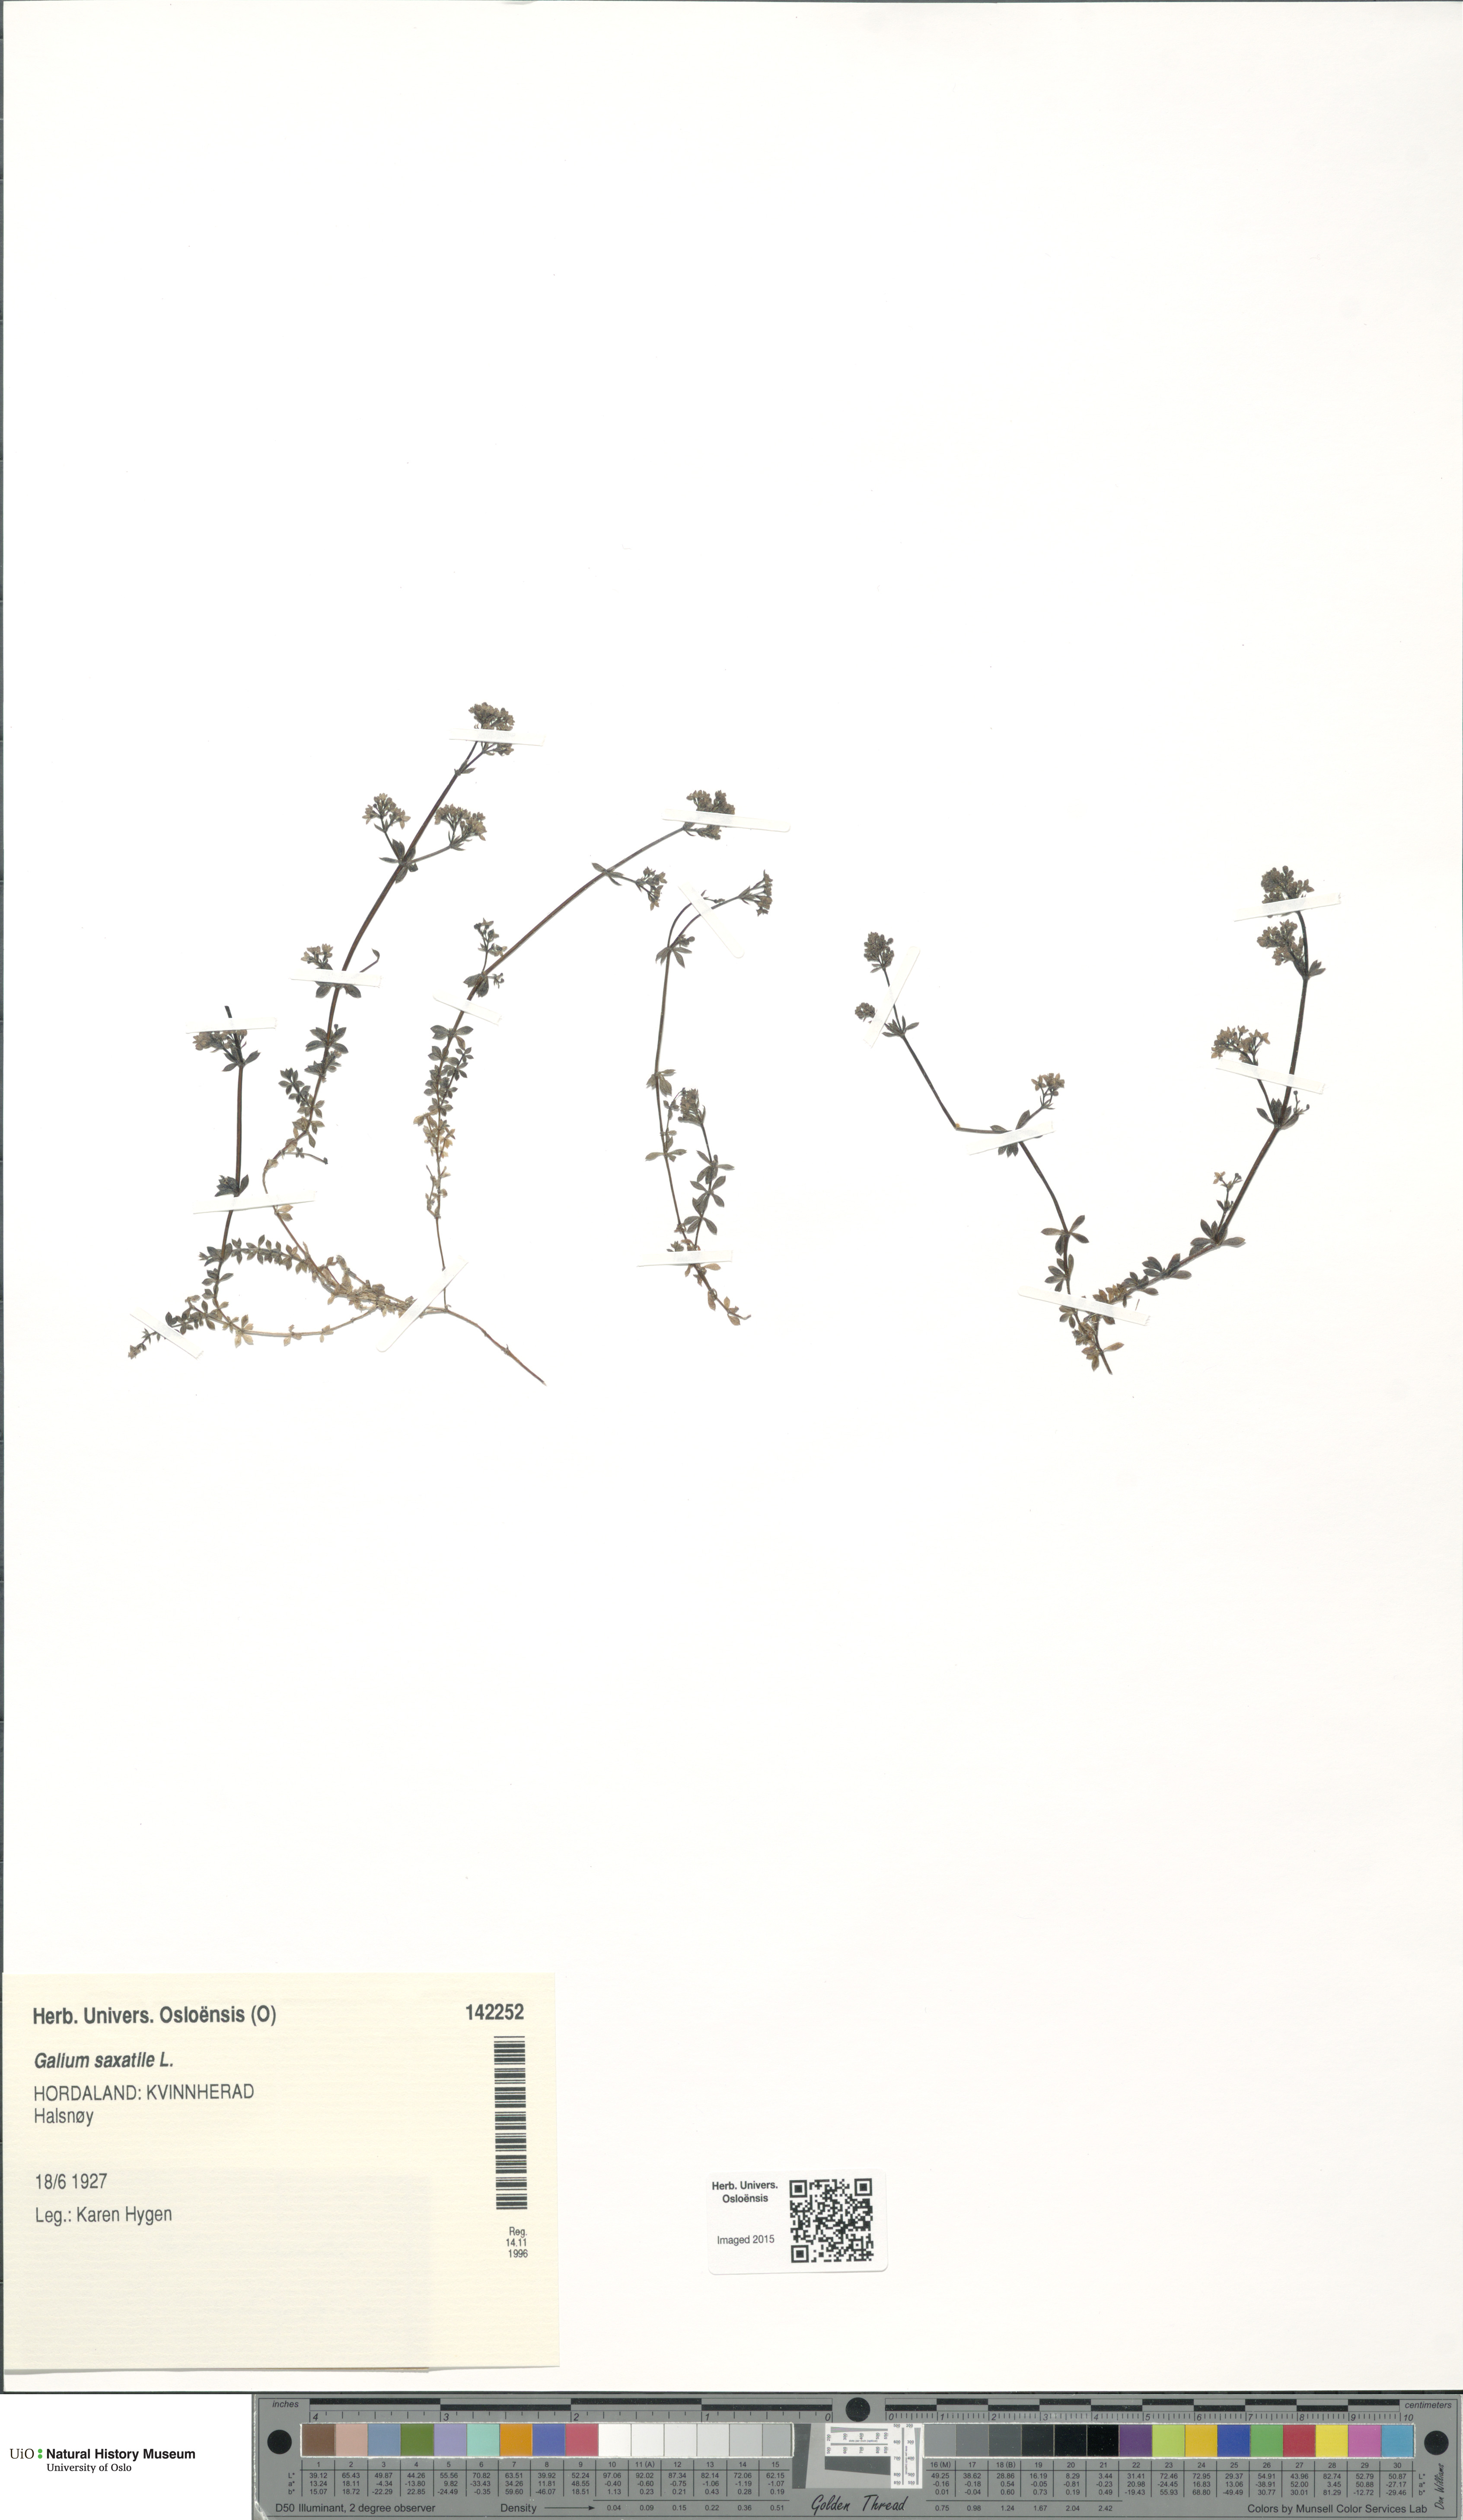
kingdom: Plantae
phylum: Tracheophyta
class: Magnoliopsida
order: Gentianales
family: Rubiaceae
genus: Galium
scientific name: Galium saxatile
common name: Heath bedstraw
